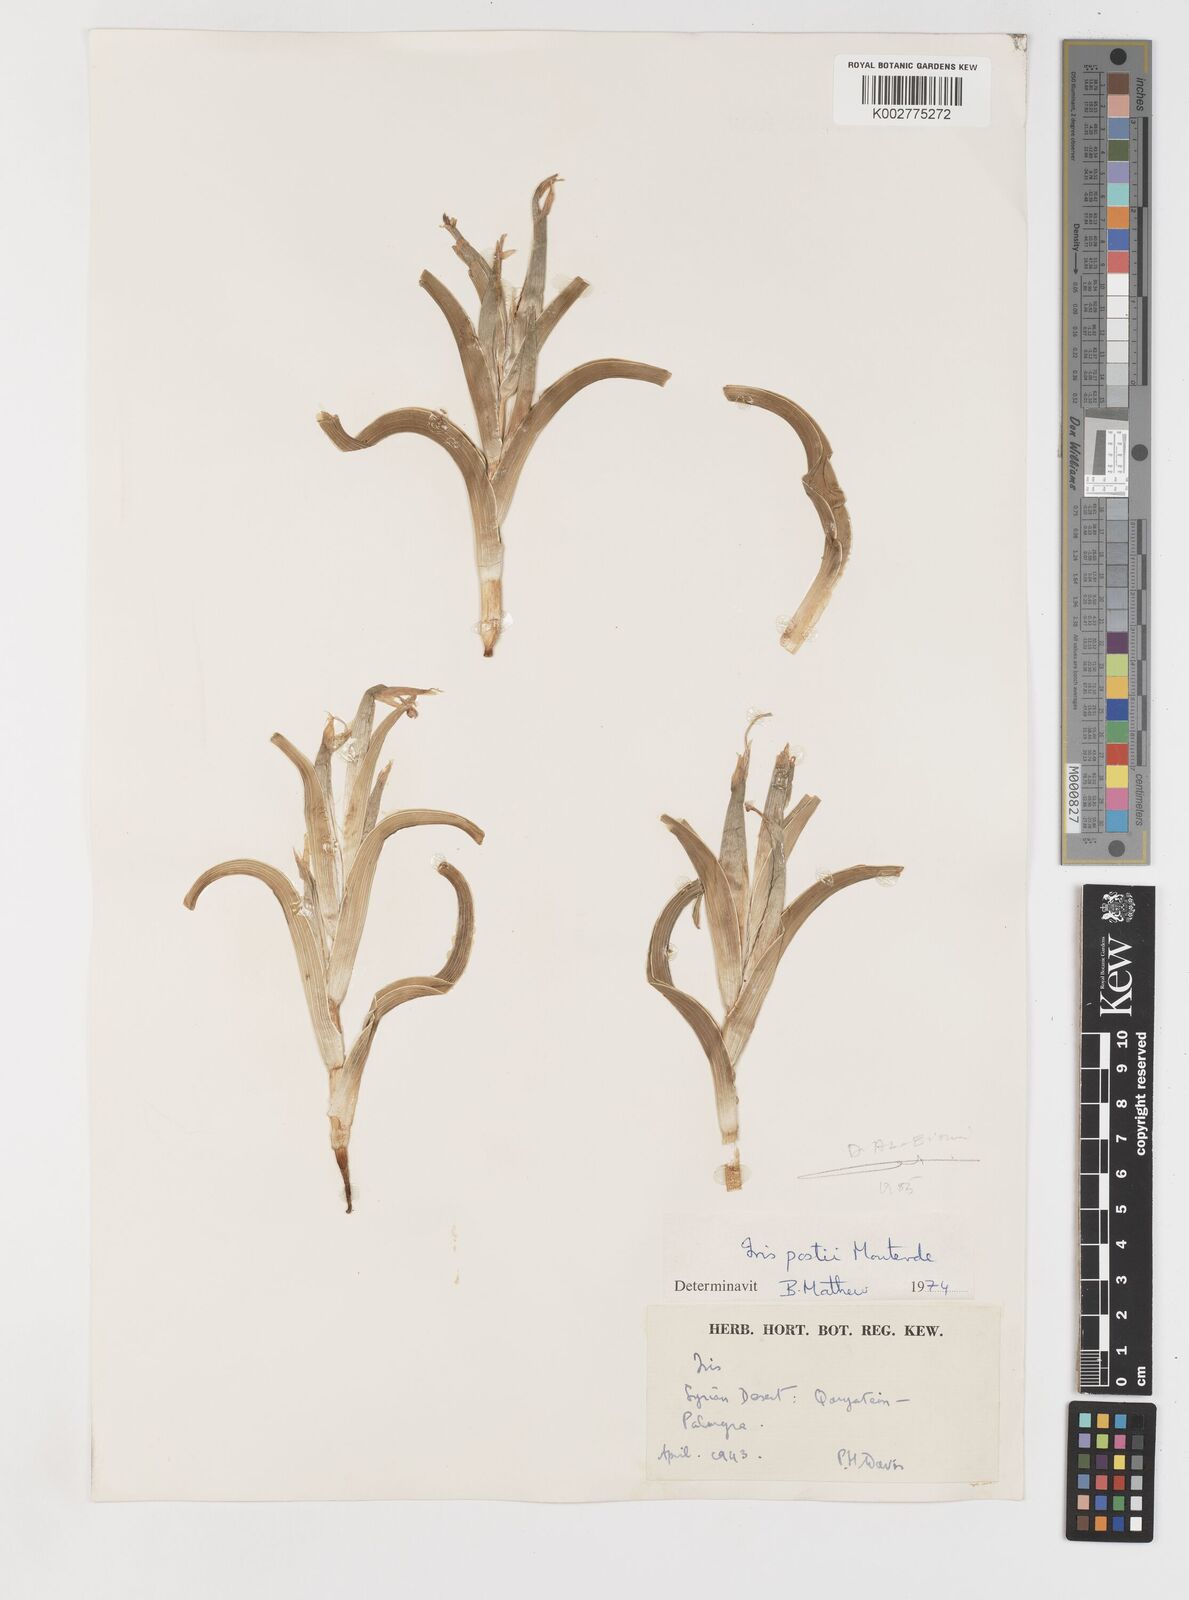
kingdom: Plantae
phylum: Tracheophyta
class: Liliopsida
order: Asparagales
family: Iridaceae
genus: Iris
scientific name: Iris postii
